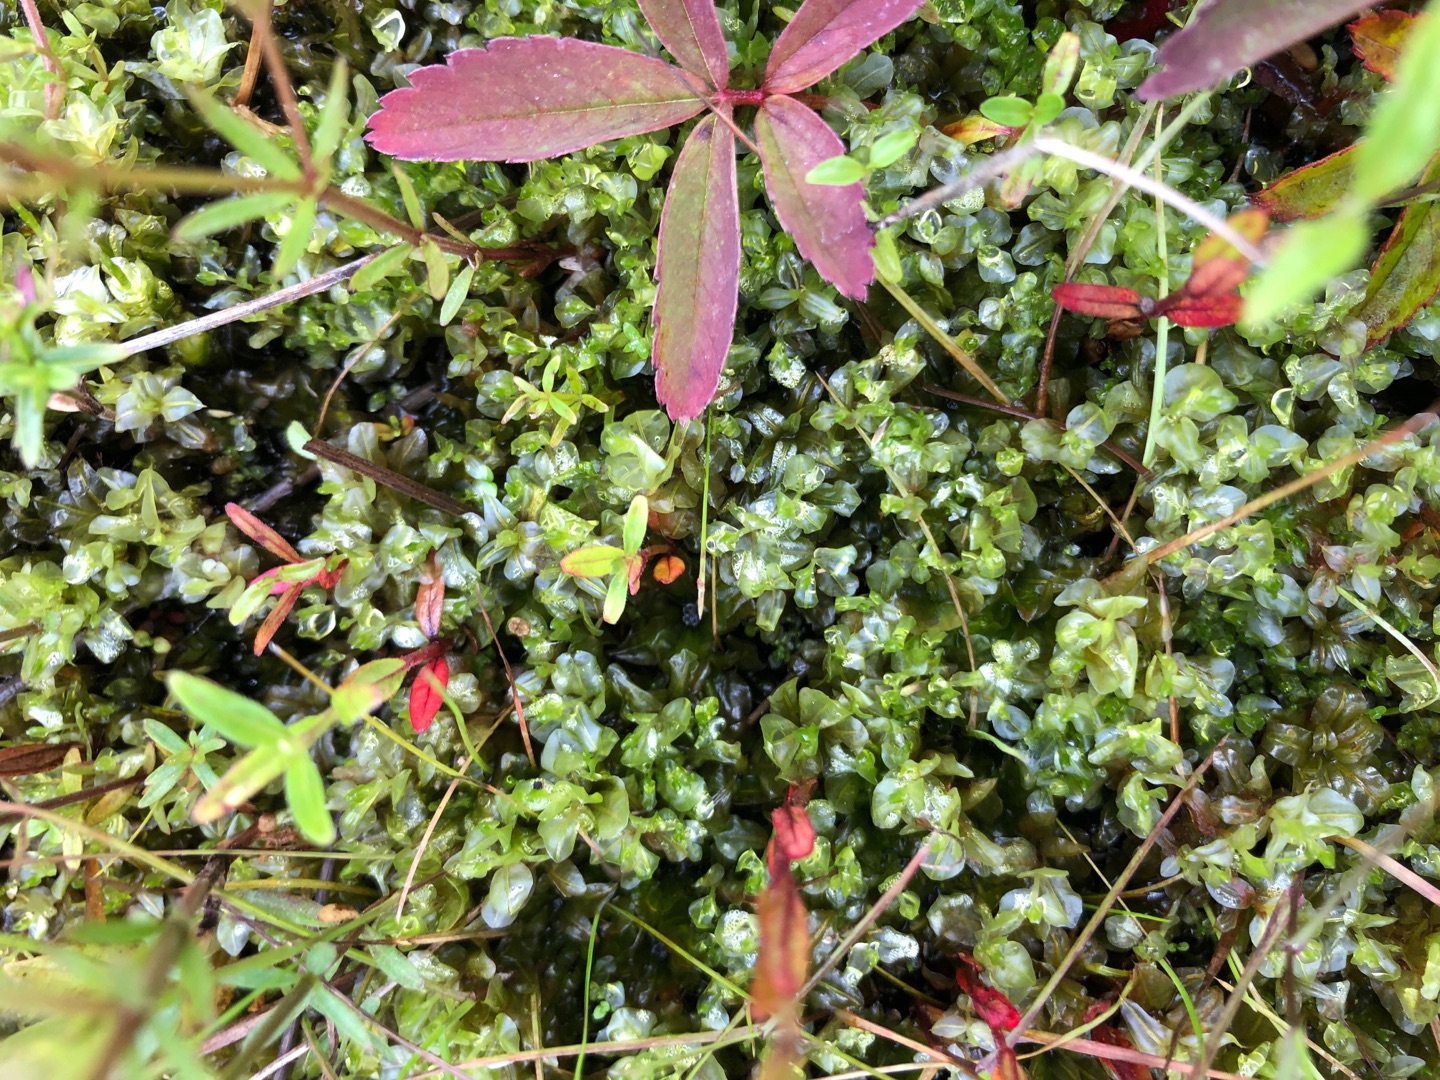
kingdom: Plantae
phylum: Bryophyta
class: Bryopsida
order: Bryales
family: Mniaceae
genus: Pseudobryum
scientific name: Pseudobryum cinclidioides
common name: Sortstænglet sumpmos
